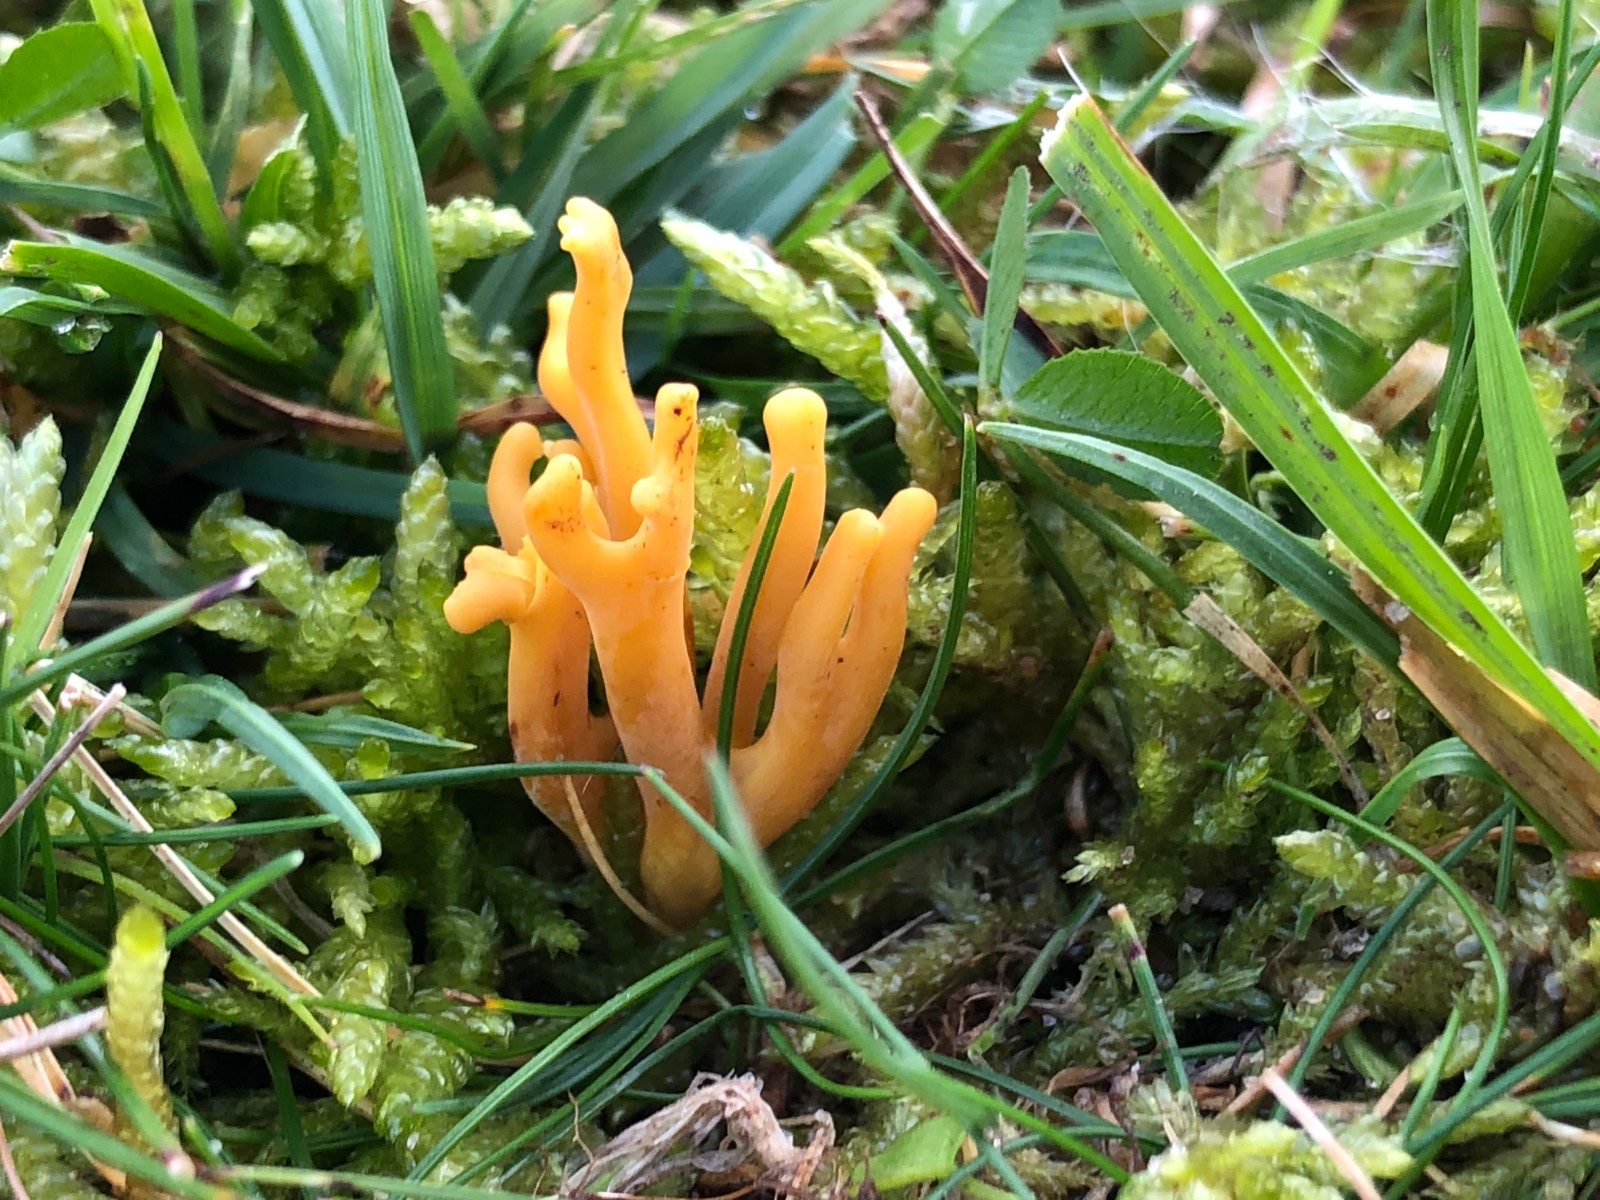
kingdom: Fungi
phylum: Basidiomycota
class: Agaricomycetes
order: Agaricales
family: Clavariaceae
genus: Clavulinopsis
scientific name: Clavulinopsis corniculata
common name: eng-køllesvamp
